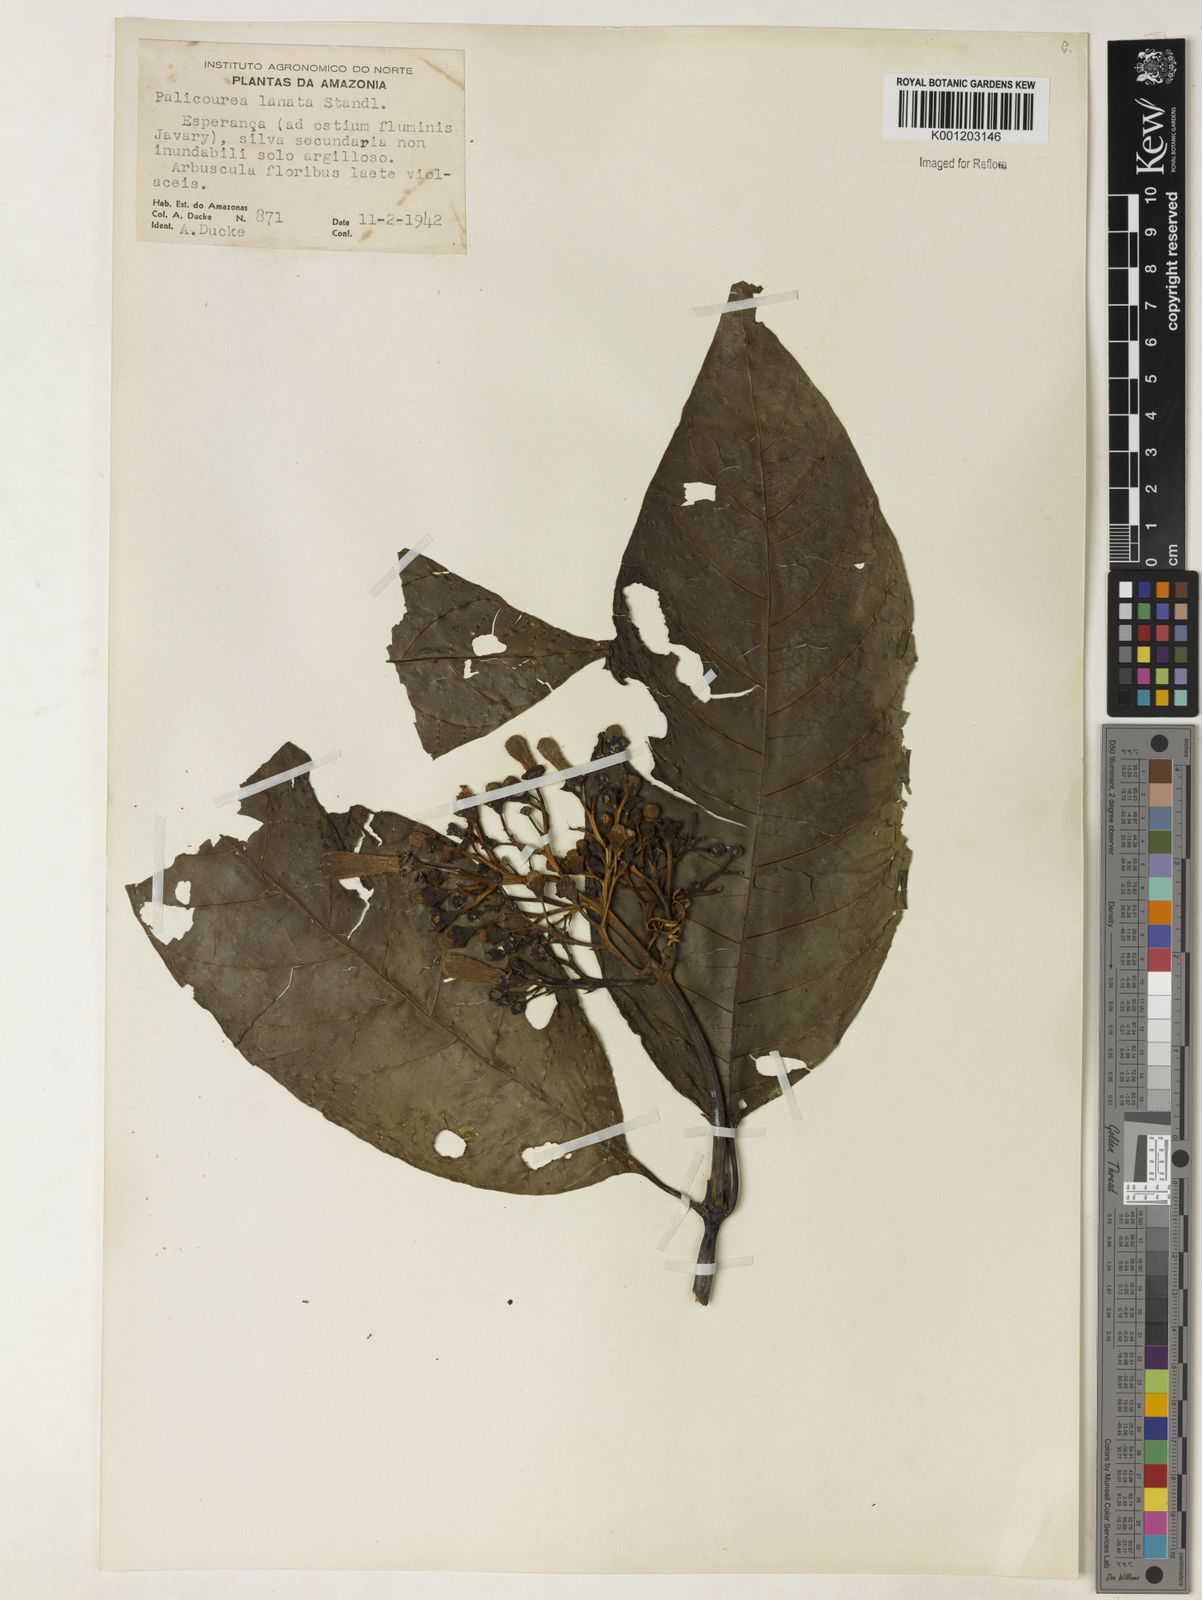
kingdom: Plantae
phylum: Tracheophyta
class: Magnoliopsida
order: Gentianales
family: Rubiaceae
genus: Palicourea
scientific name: Palicourea lasiantha
